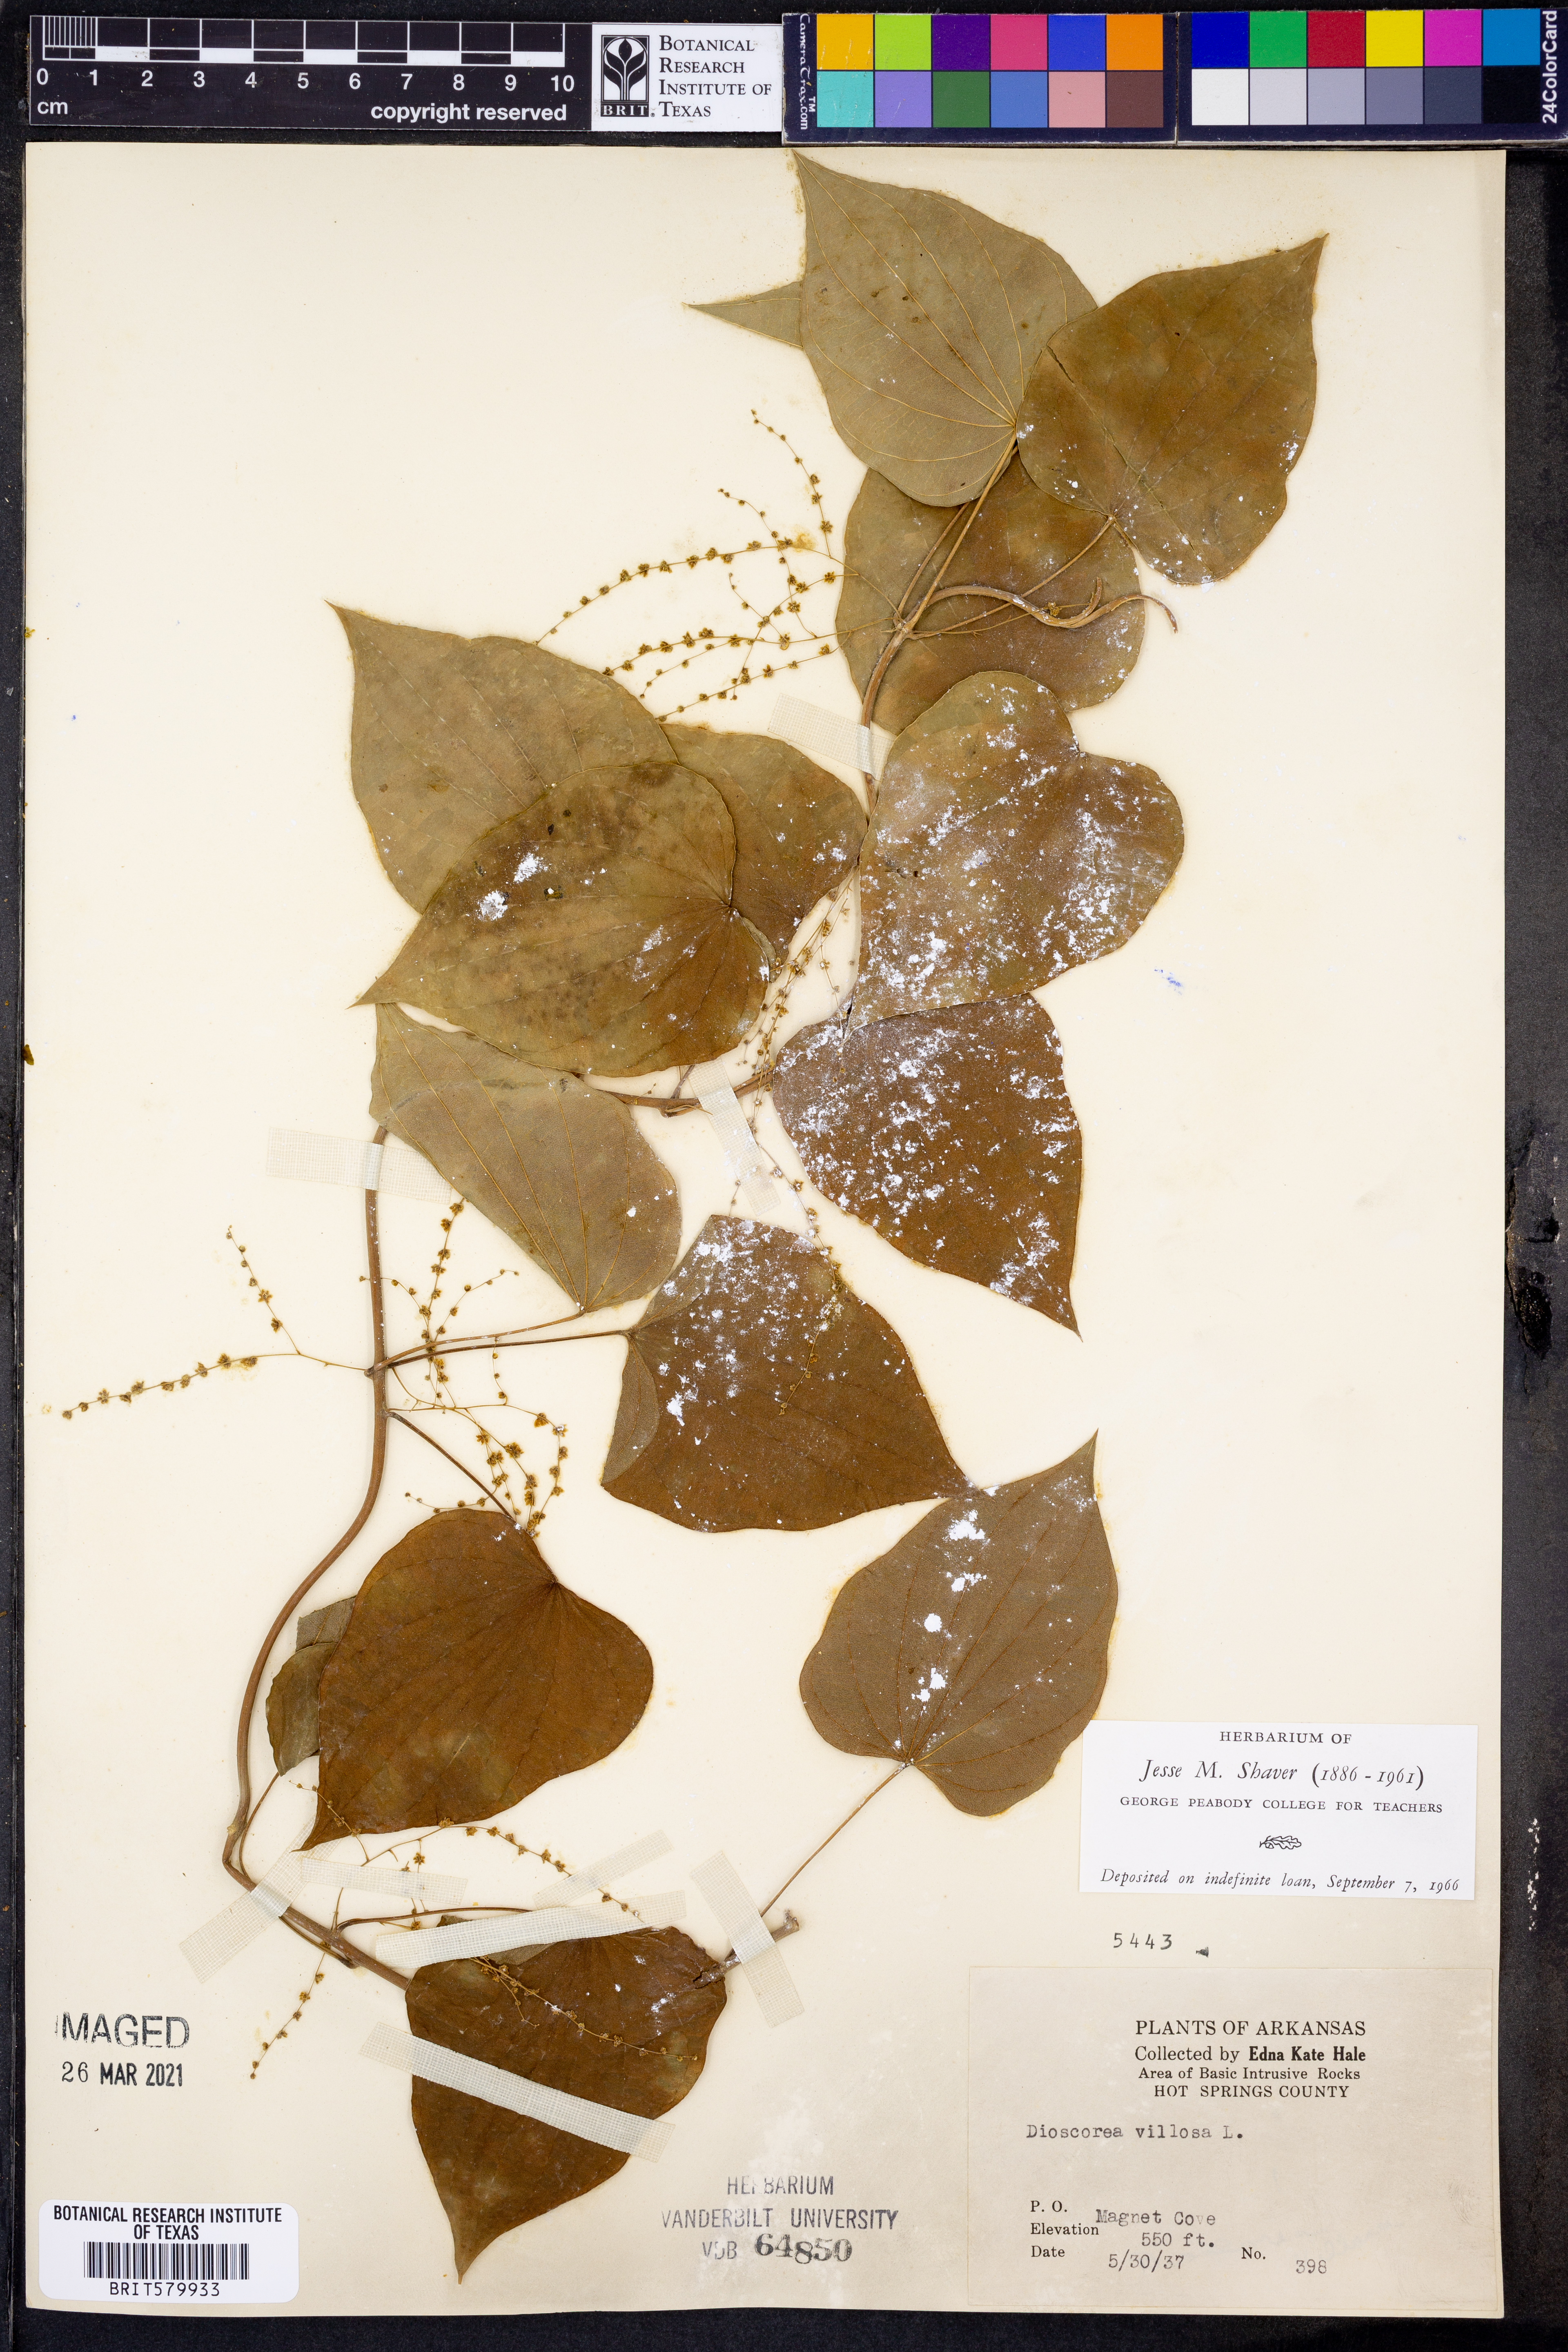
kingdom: Plantae
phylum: Tracheophyta
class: Liliopsida
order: Dioscoreales
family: Dioscoreaceae
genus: Dioscorea
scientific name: Dioscorea villosa
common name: Wild yam
